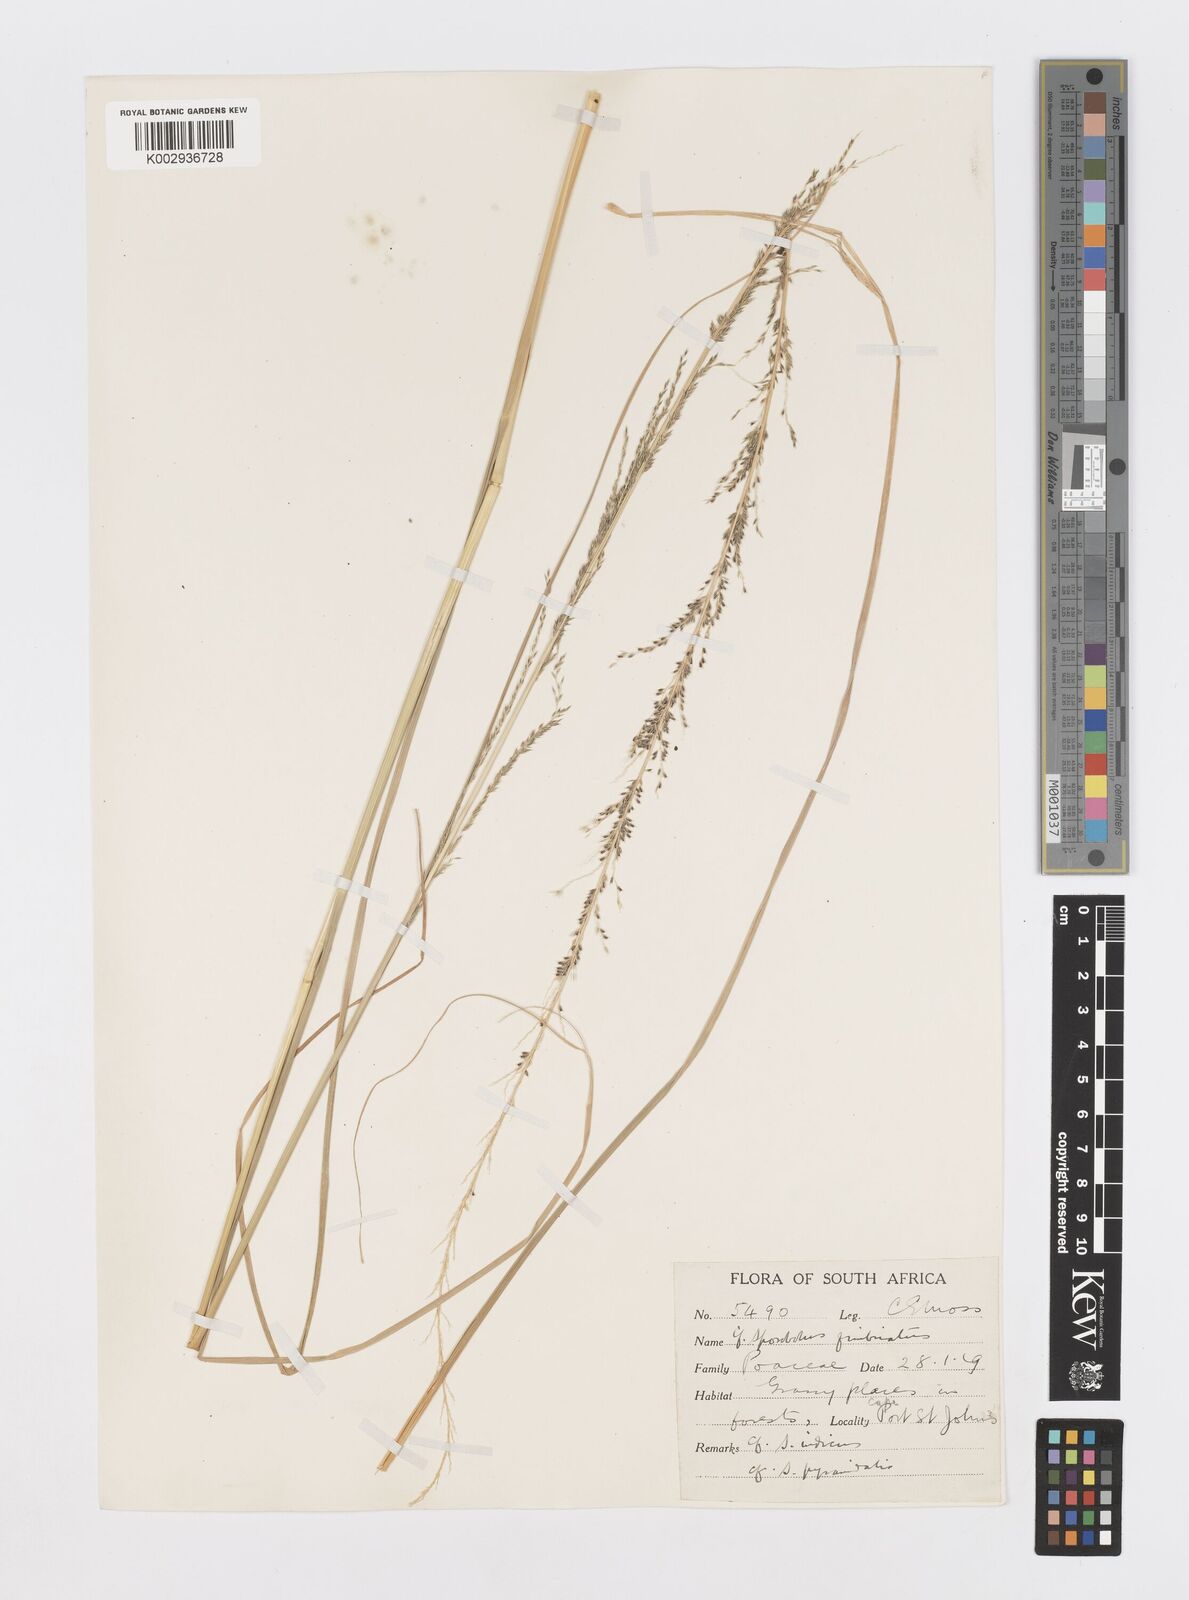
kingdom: Plantae
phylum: Tracheophyta
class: Liliopsida
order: Poales
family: Poaceae
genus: Sporobolus
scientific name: Sporobolus fimbriatus
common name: Fringed dropseed
